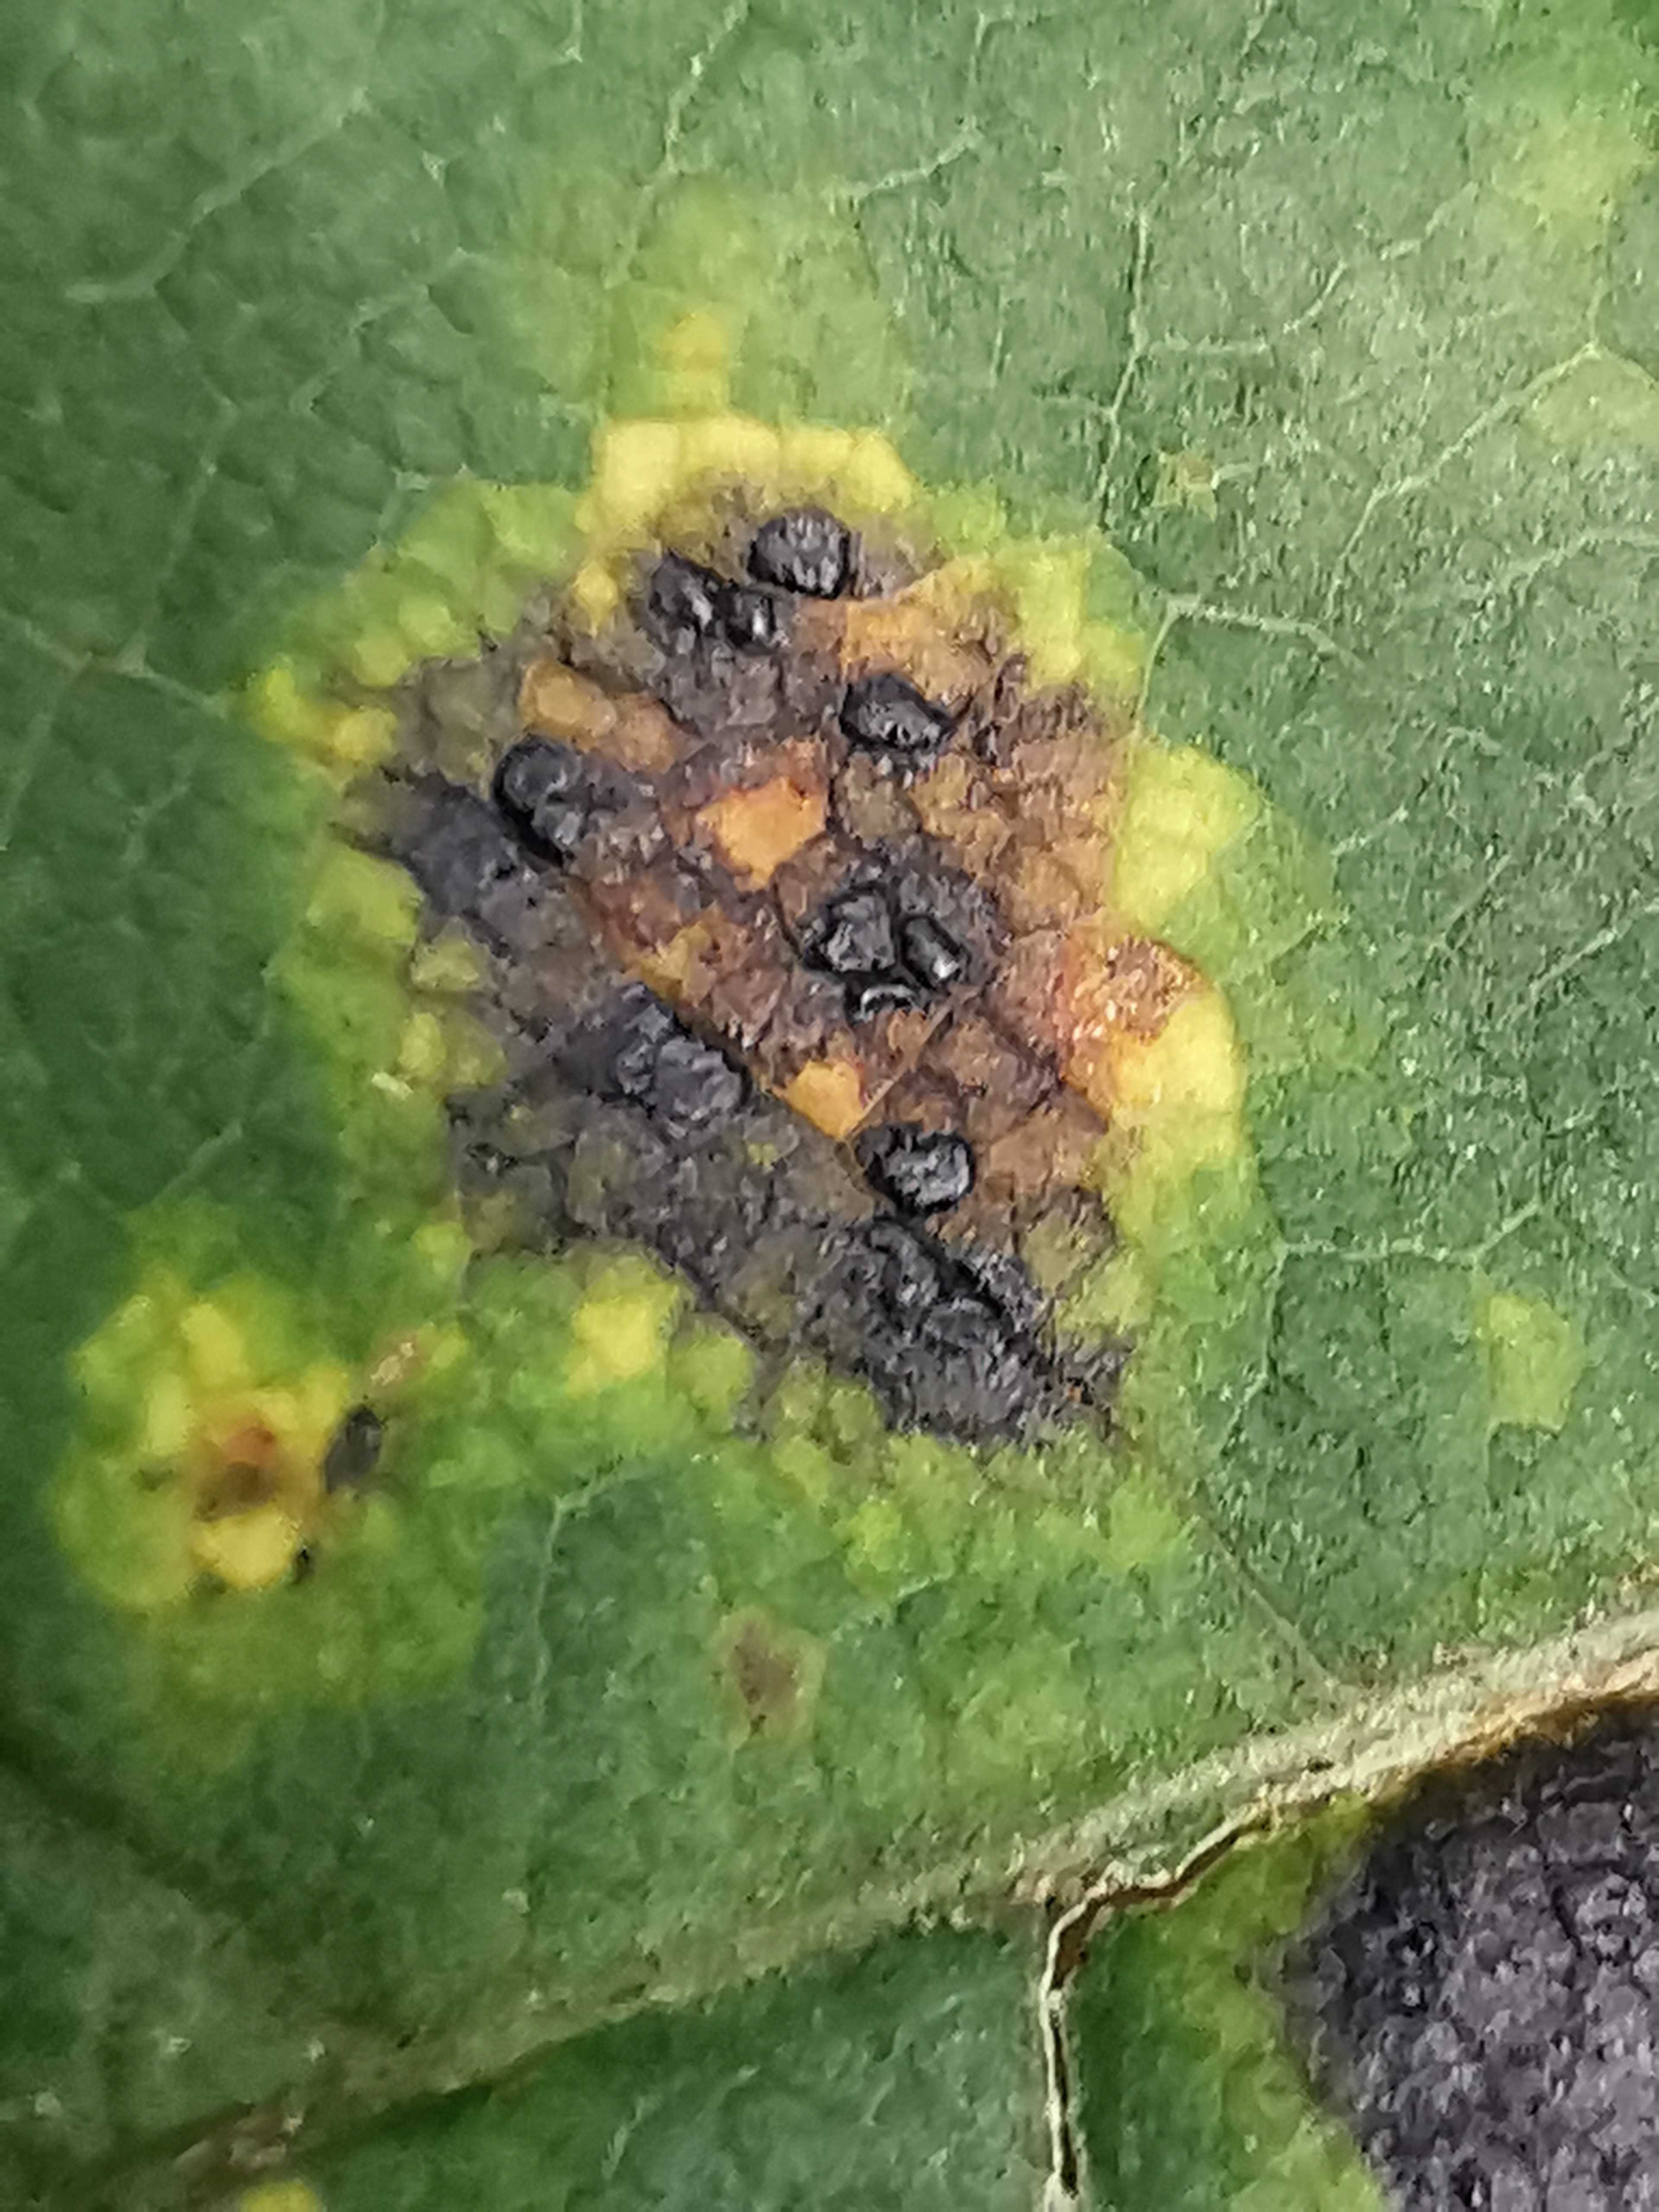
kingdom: Fungi
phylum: Ascomycota
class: Leotiomycetes
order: Rhytismatales
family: Rhytismataceae
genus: Rhytisma
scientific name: Rhytisma acerinum
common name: ahorn-rynkeplet
